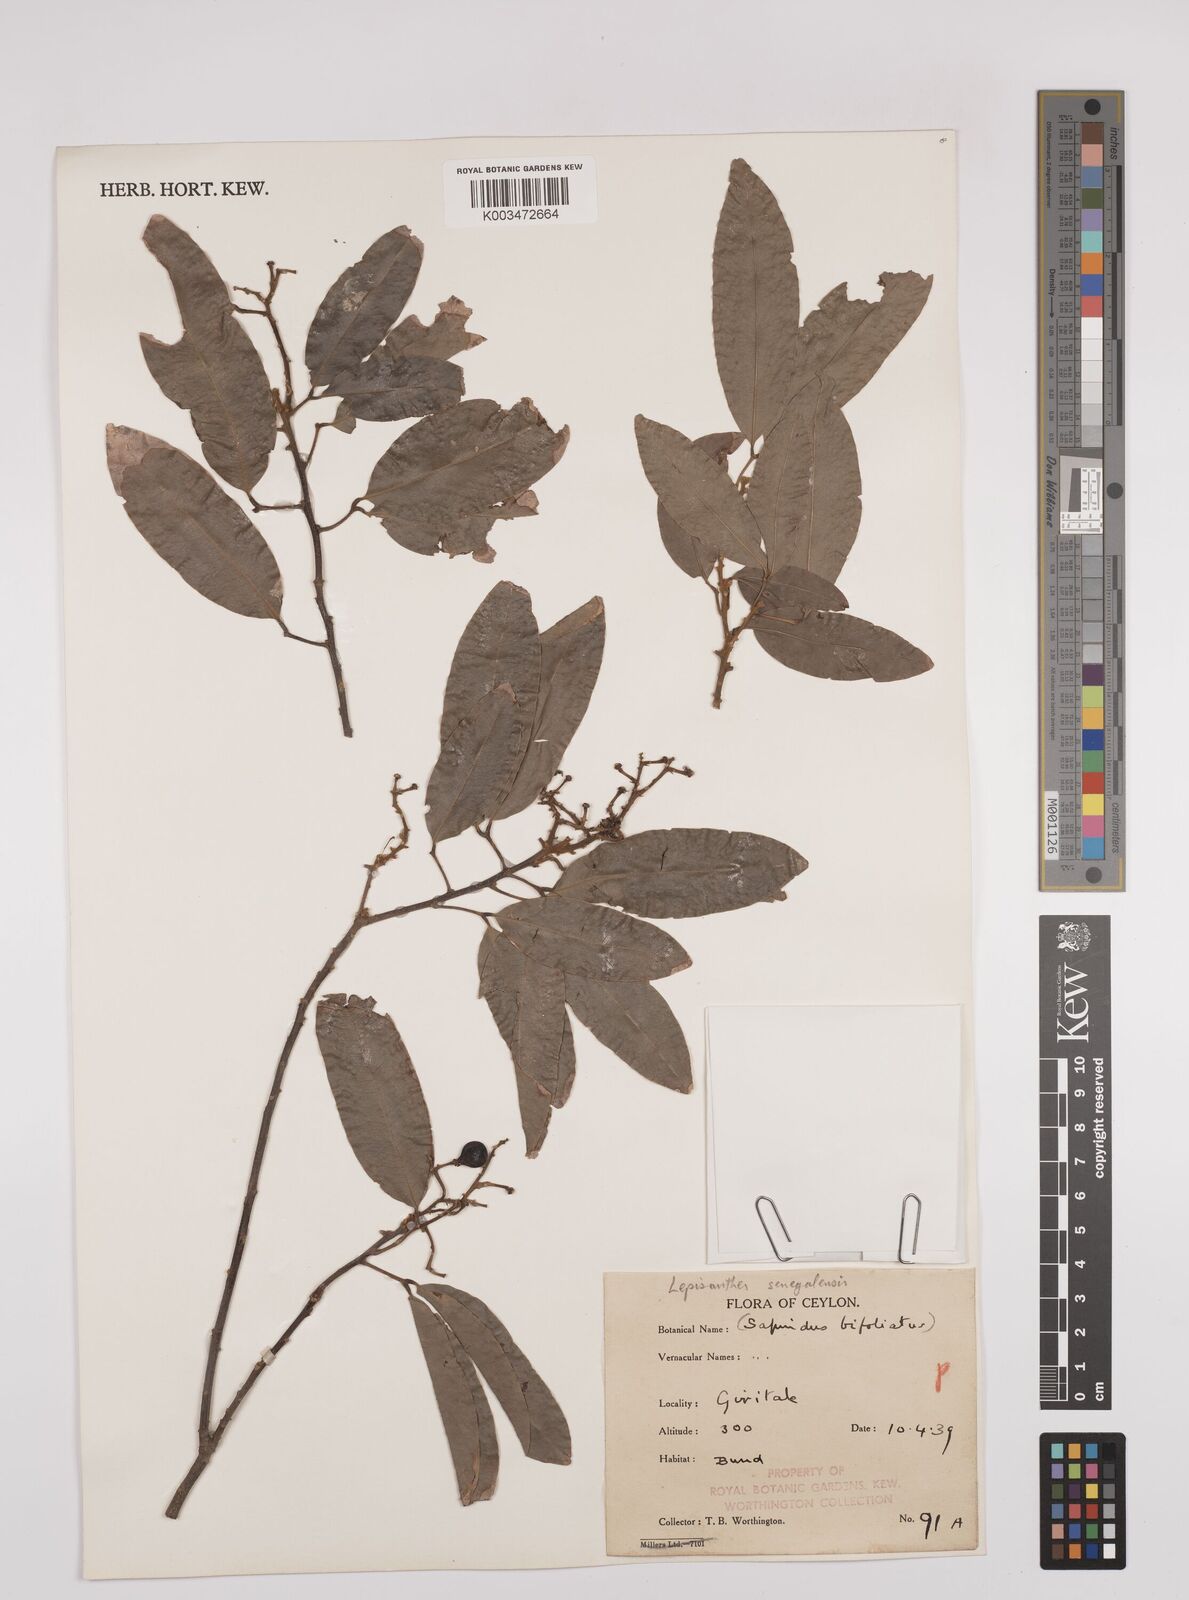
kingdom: Plantae
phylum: Tracheophyta
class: Magnoliopsida
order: Sapindales
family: Sapindaceae
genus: Lepisanthes
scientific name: Lepisanthes senegalensis
